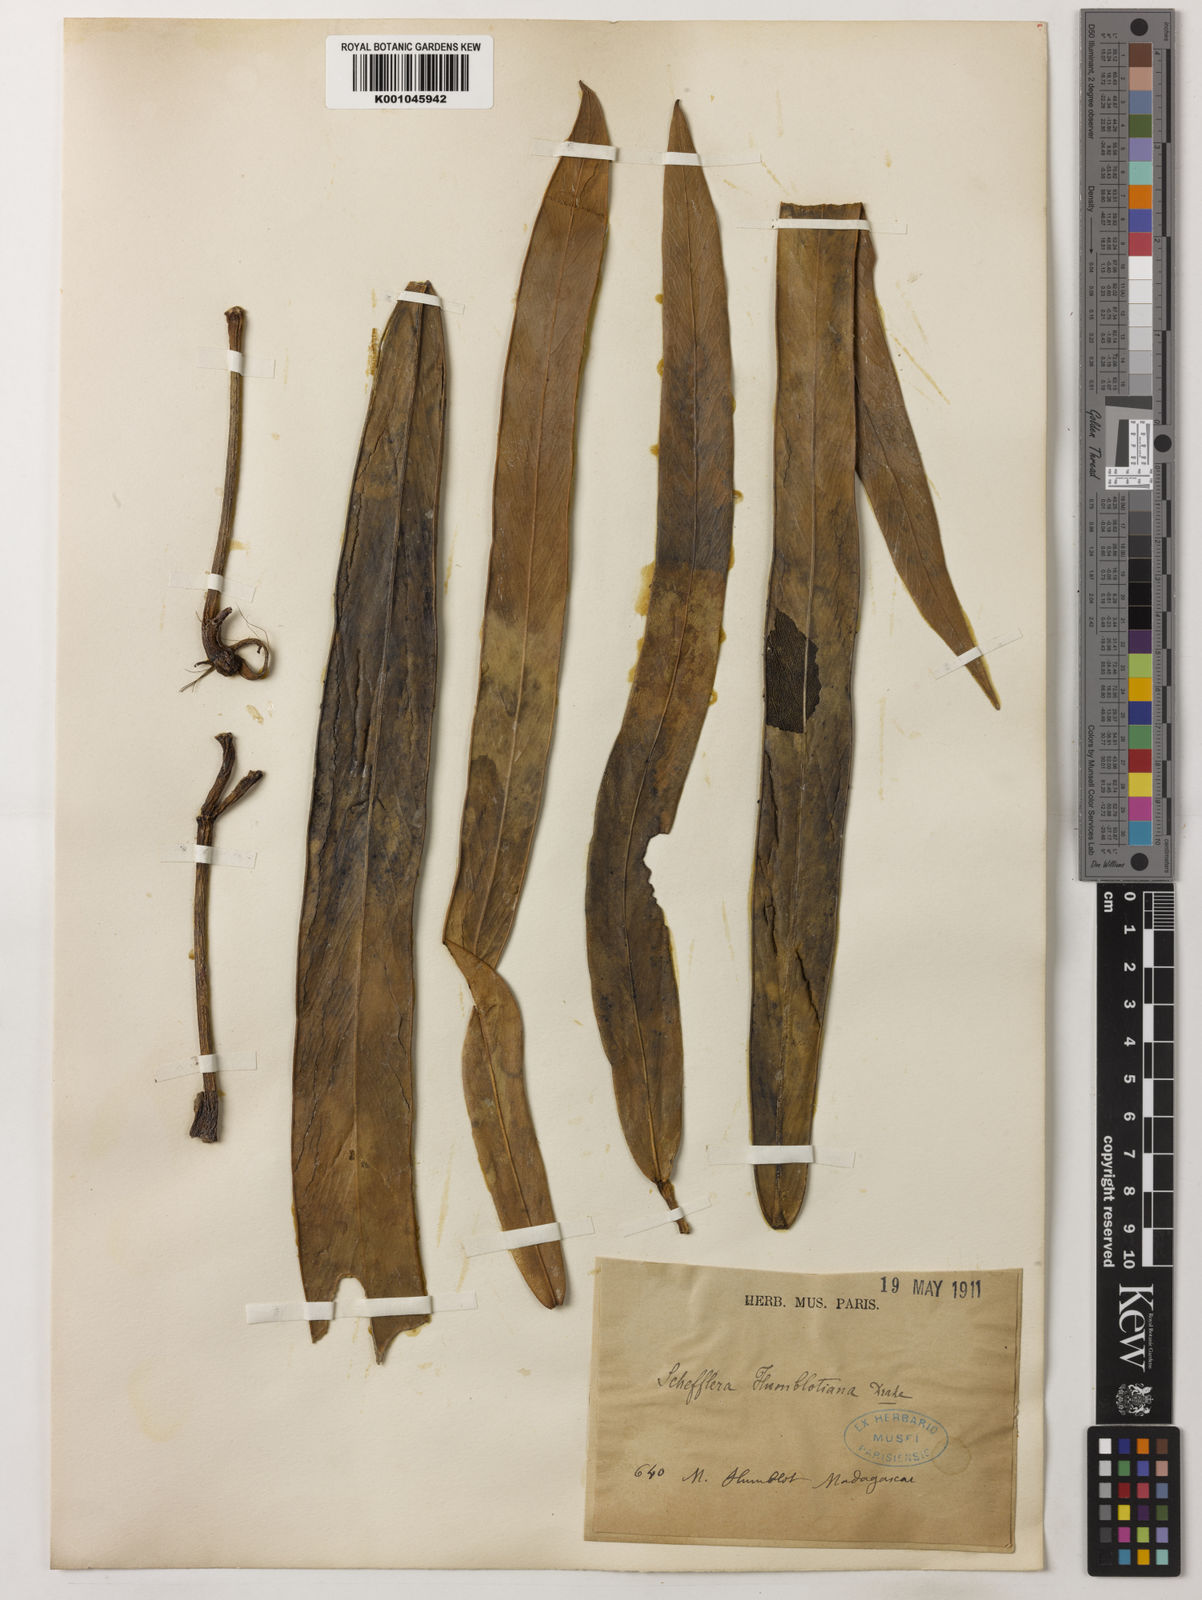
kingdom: Plantae
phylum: Tracheophyta
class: Magnoliopsida
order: Apiales
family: Araliaceae
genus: Astropanax
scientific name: Astropanax humblotianus
